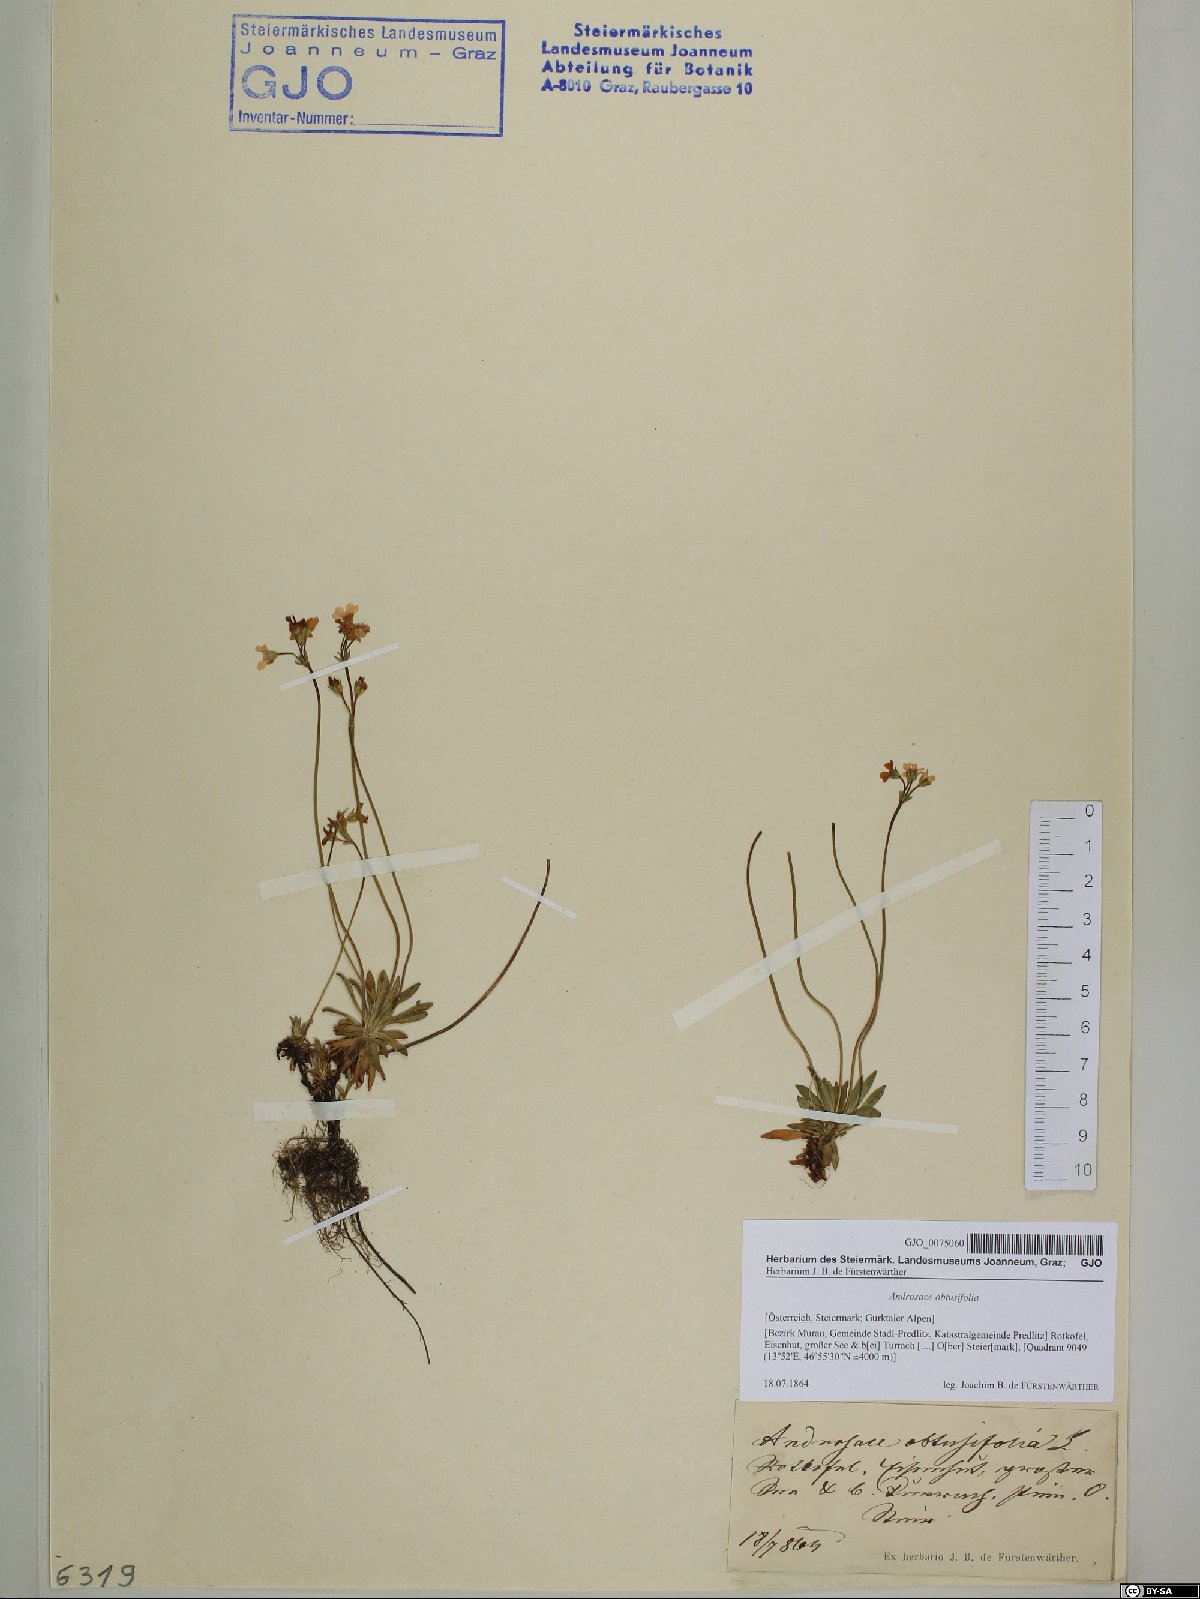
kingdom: Plantae
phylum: Tracheophyta
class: Magnoliopsida
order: Ericales
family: Primulaceae
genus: Androsace
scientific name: Androsace obtusifolia
